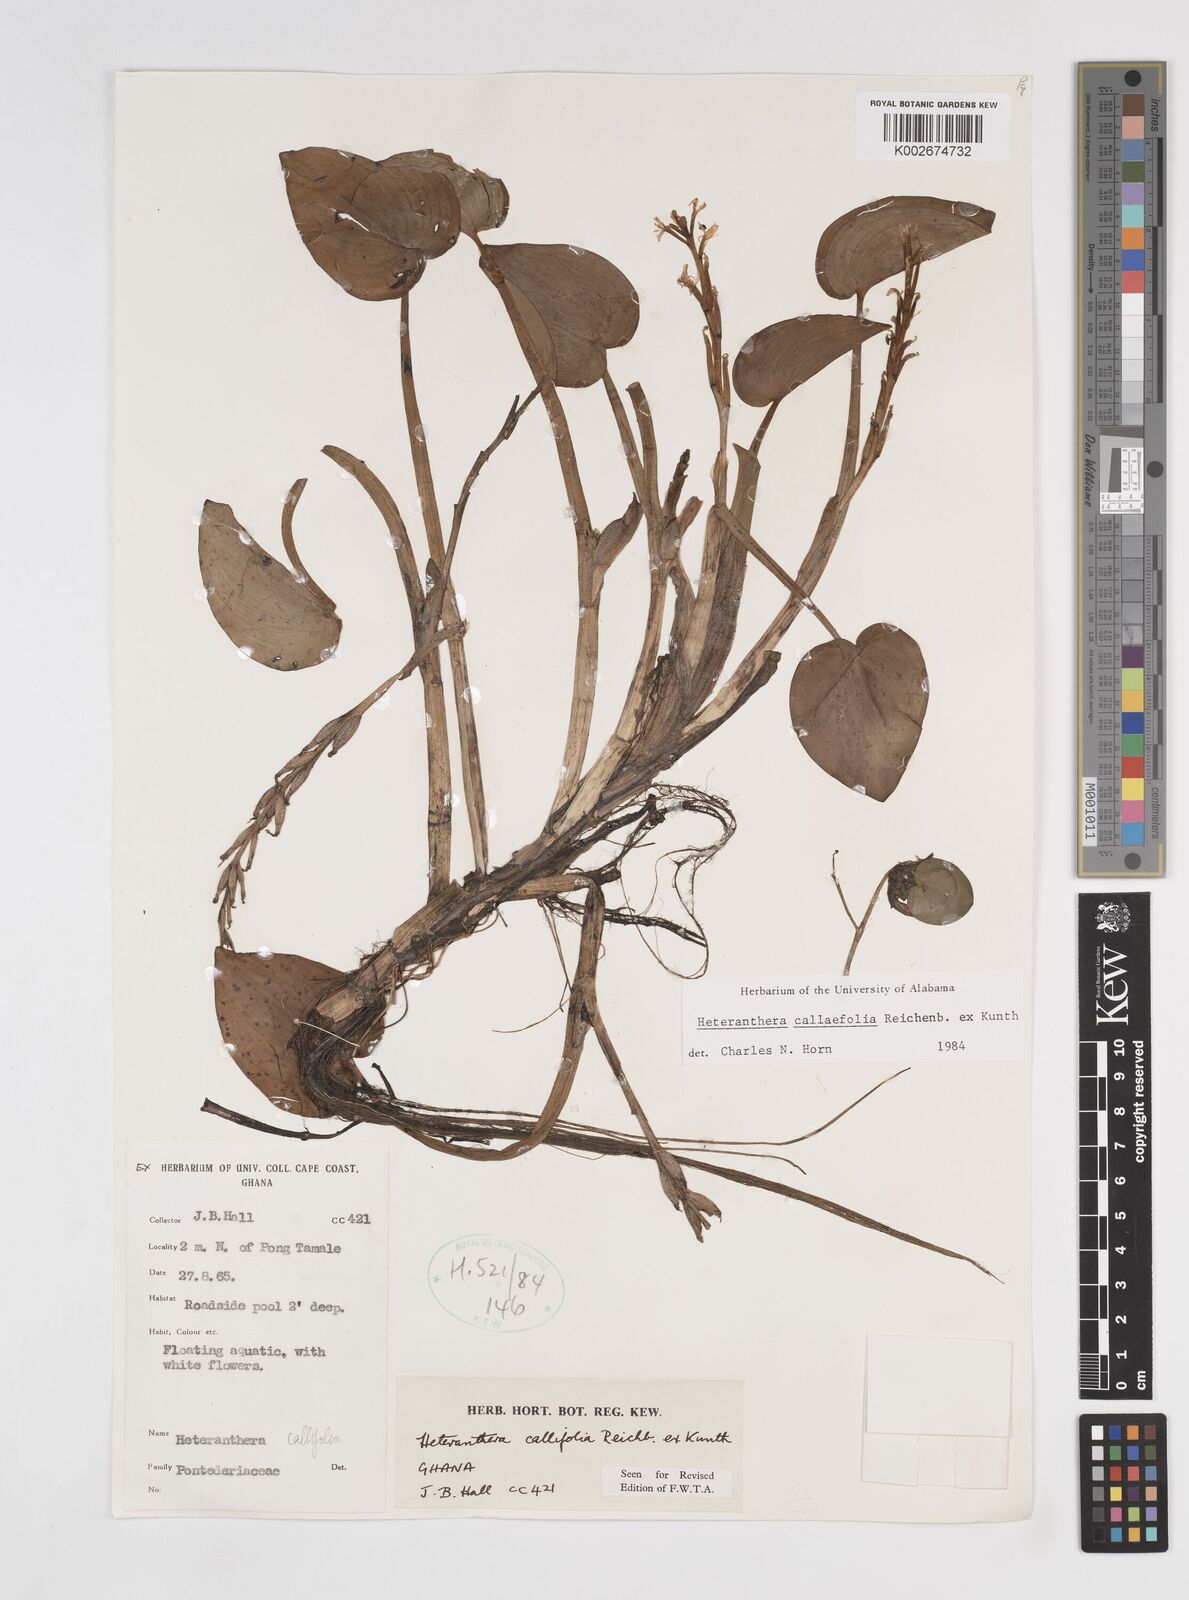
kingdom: Plantae
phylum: Tracheophyta
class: Liliopsida
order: Commelinales
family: Pontederiaceae
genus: Heteranthera
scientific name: Heteranthera callifolia
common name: Mud plantain
